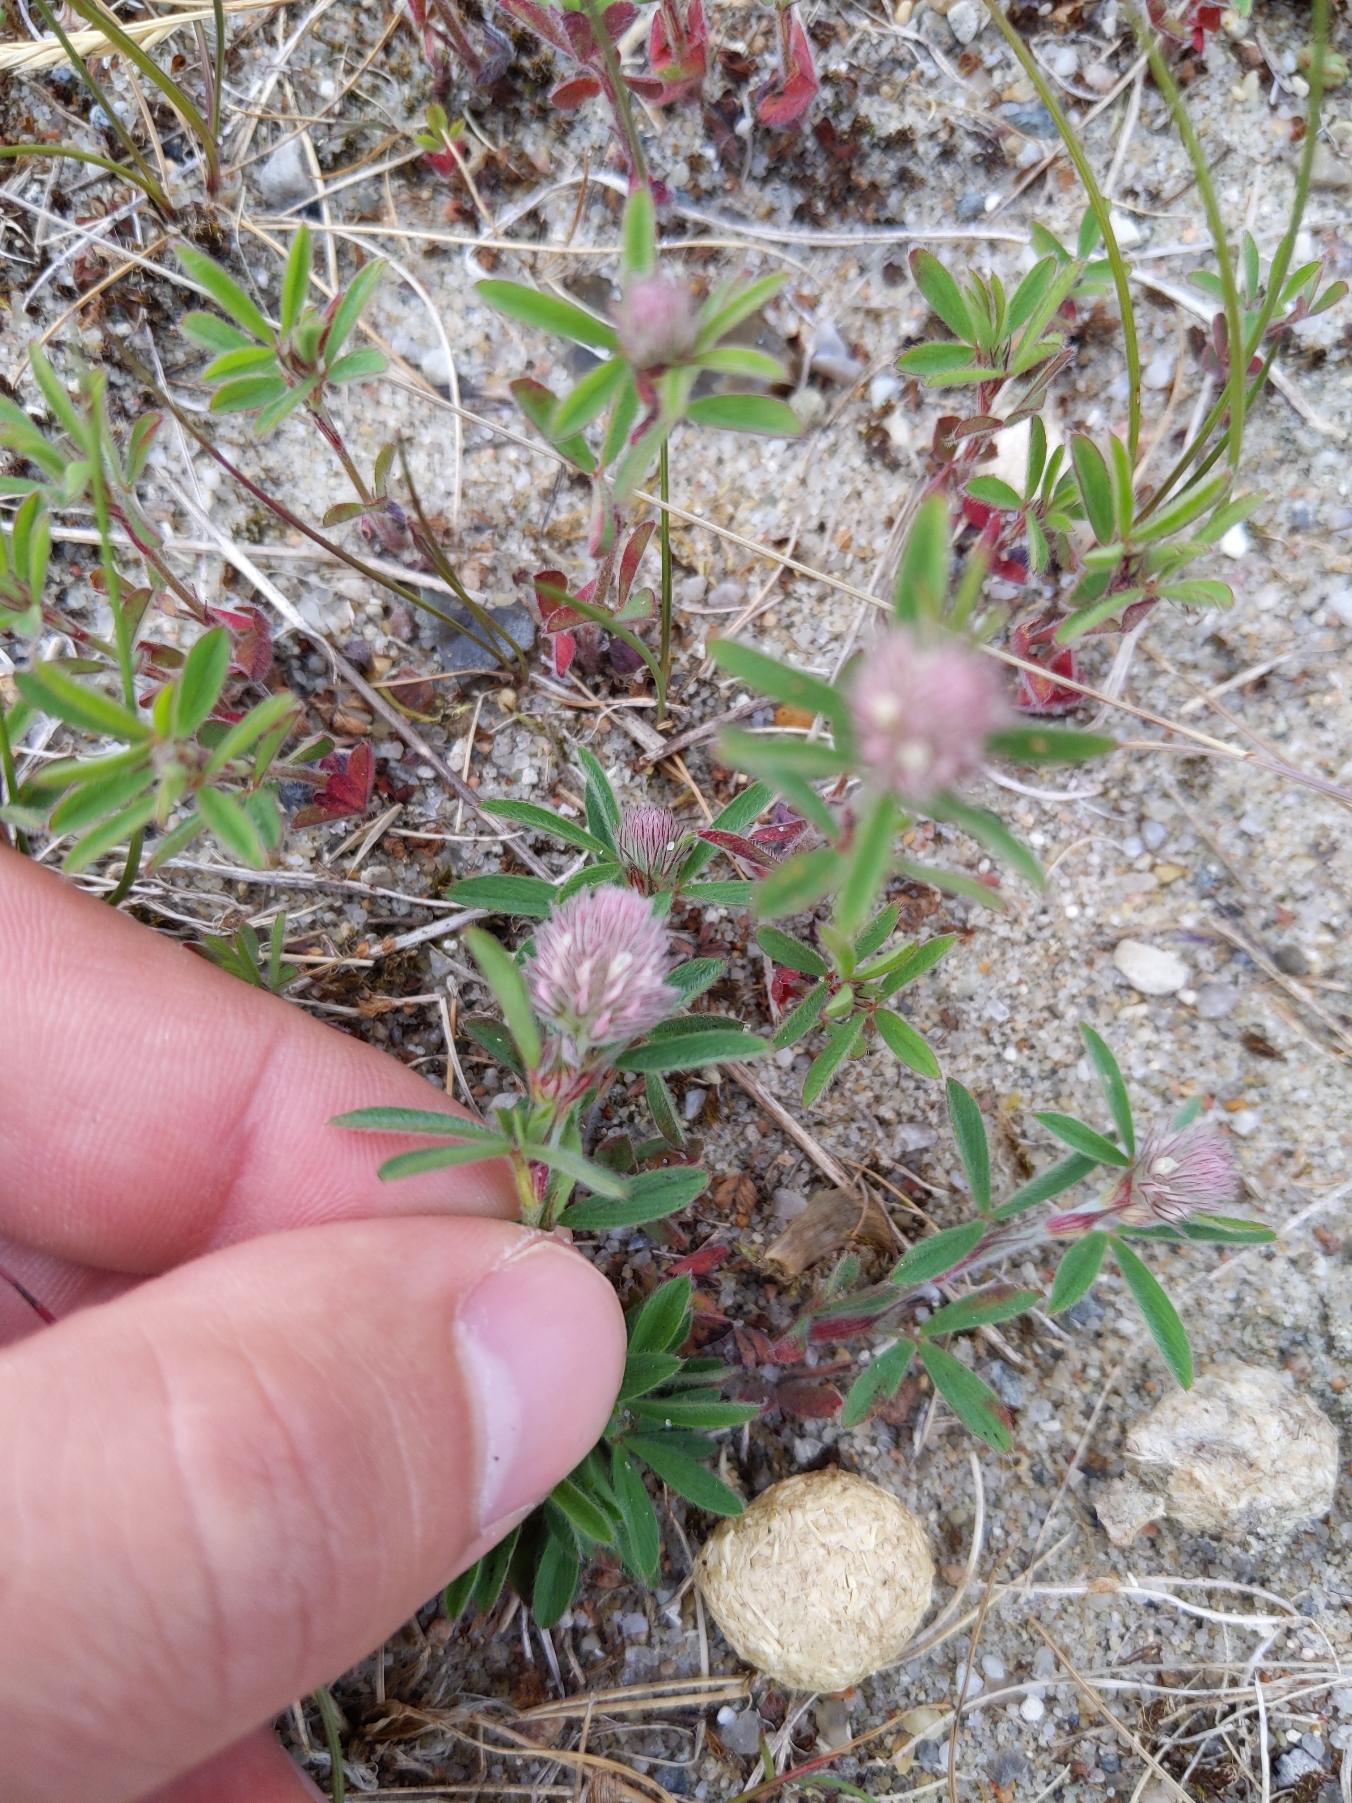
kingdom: Plantae
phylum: Tracheophyta
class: Magnoliopsida
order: Fabales
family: Fabaceae
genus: Trifolium
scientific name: Trifolium arvense
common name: Hare-kløver
